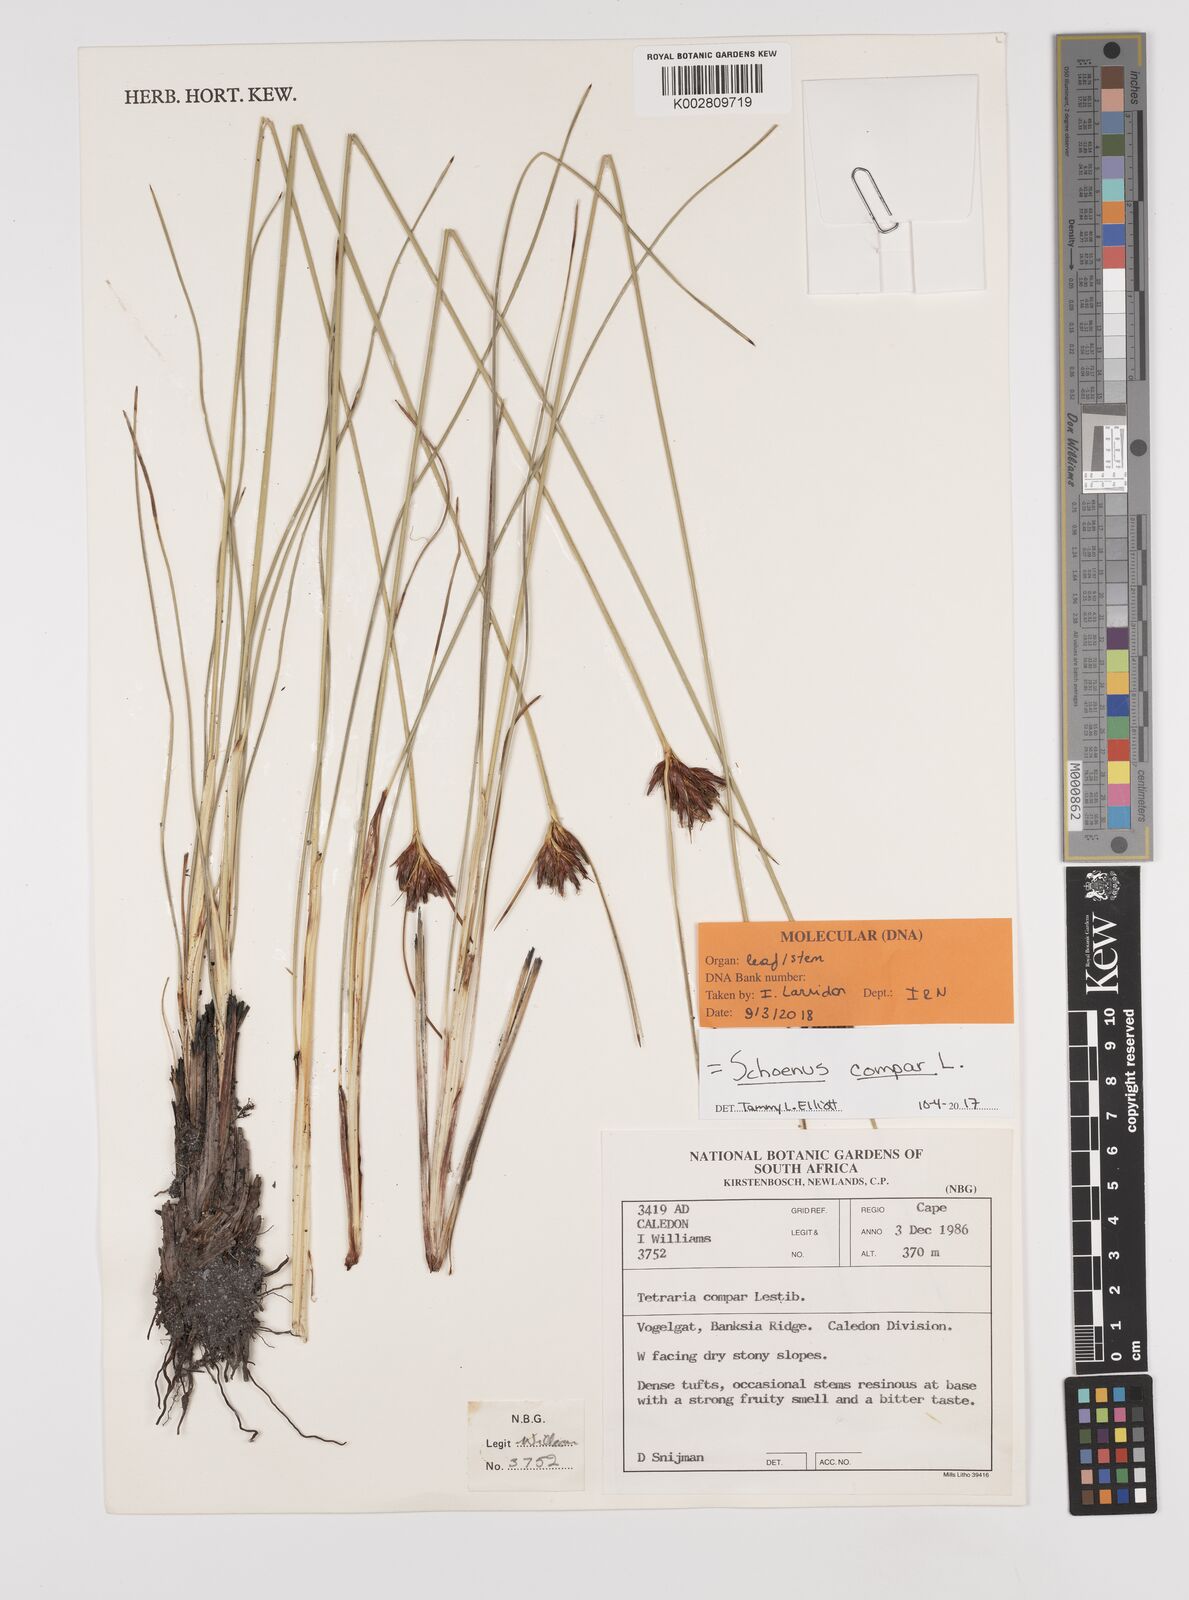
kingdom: Plantae
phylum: Tracheophyta
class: Liliopsida
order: Poales
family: Cyperaceae
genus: Schoenus
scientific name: Schoenus compar
